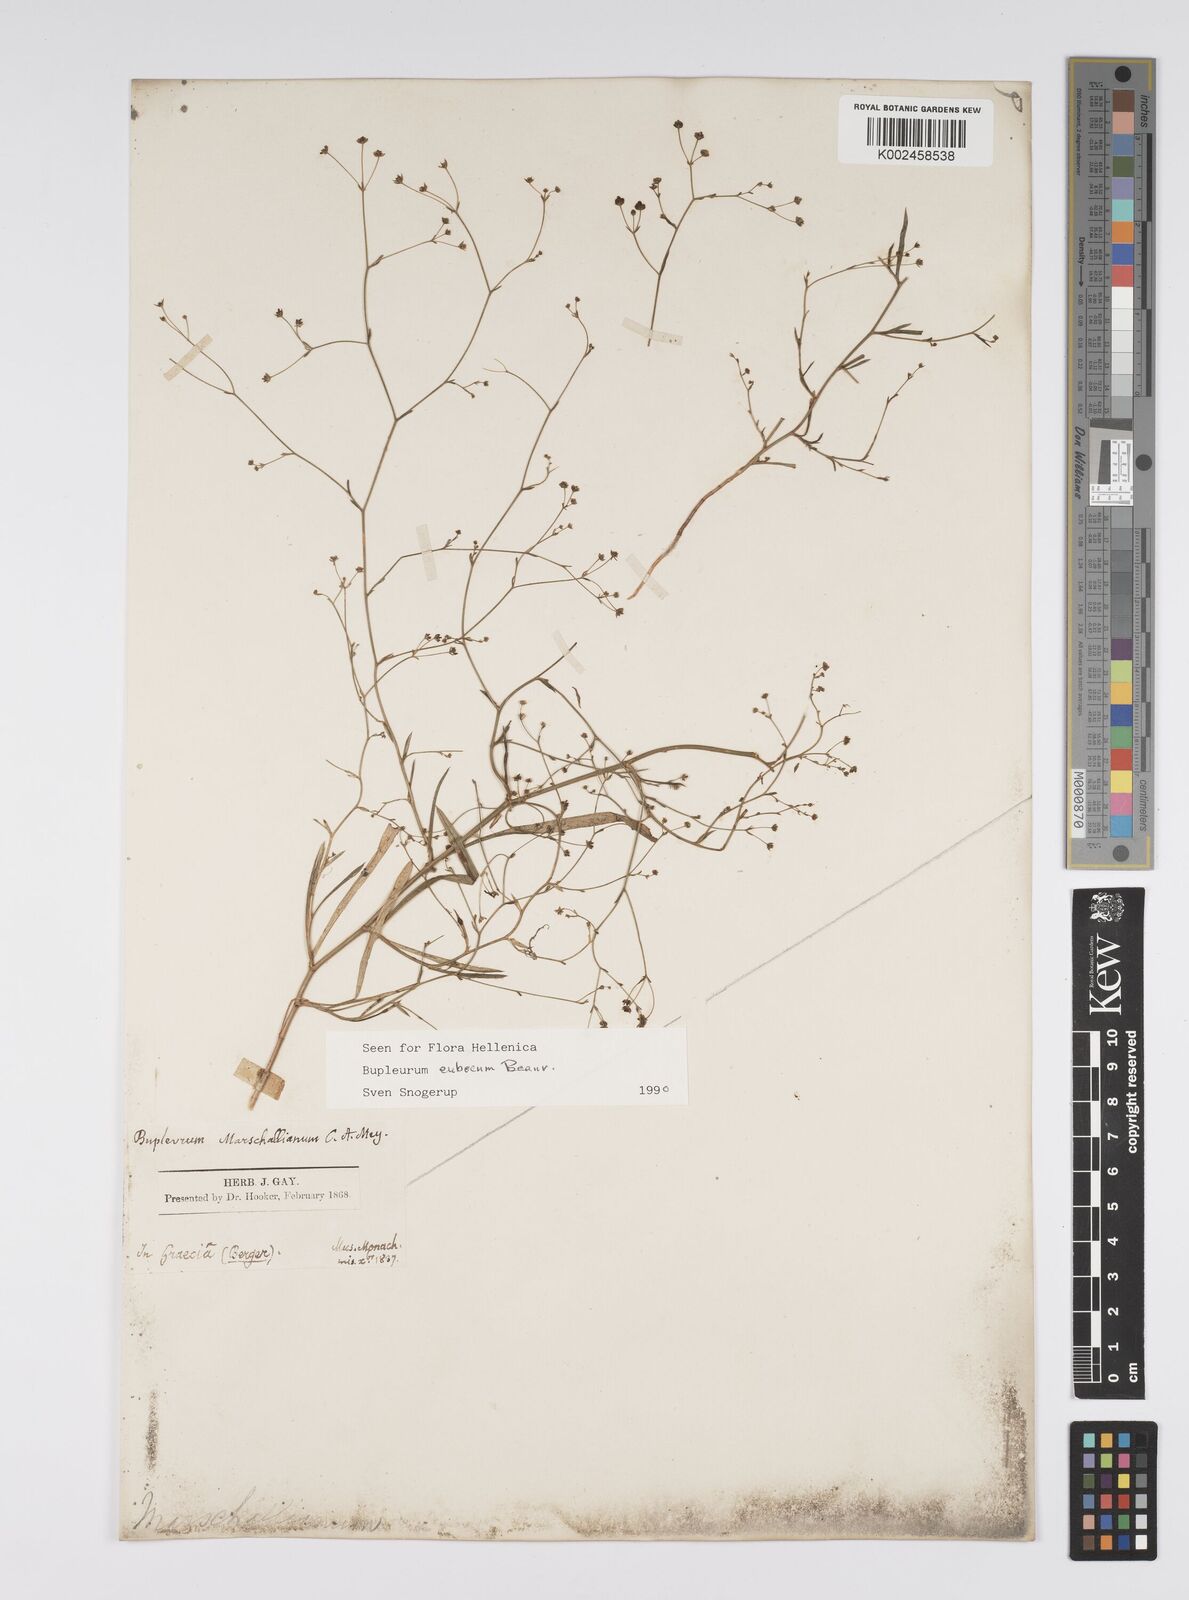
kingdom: Plantae
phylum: Tracheophyta
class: Magnoliopsida
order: Apiales
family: Apiaceae
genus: Bupleurum
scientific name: Bupleurum tenuissimum
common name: Slender hare's-ear
